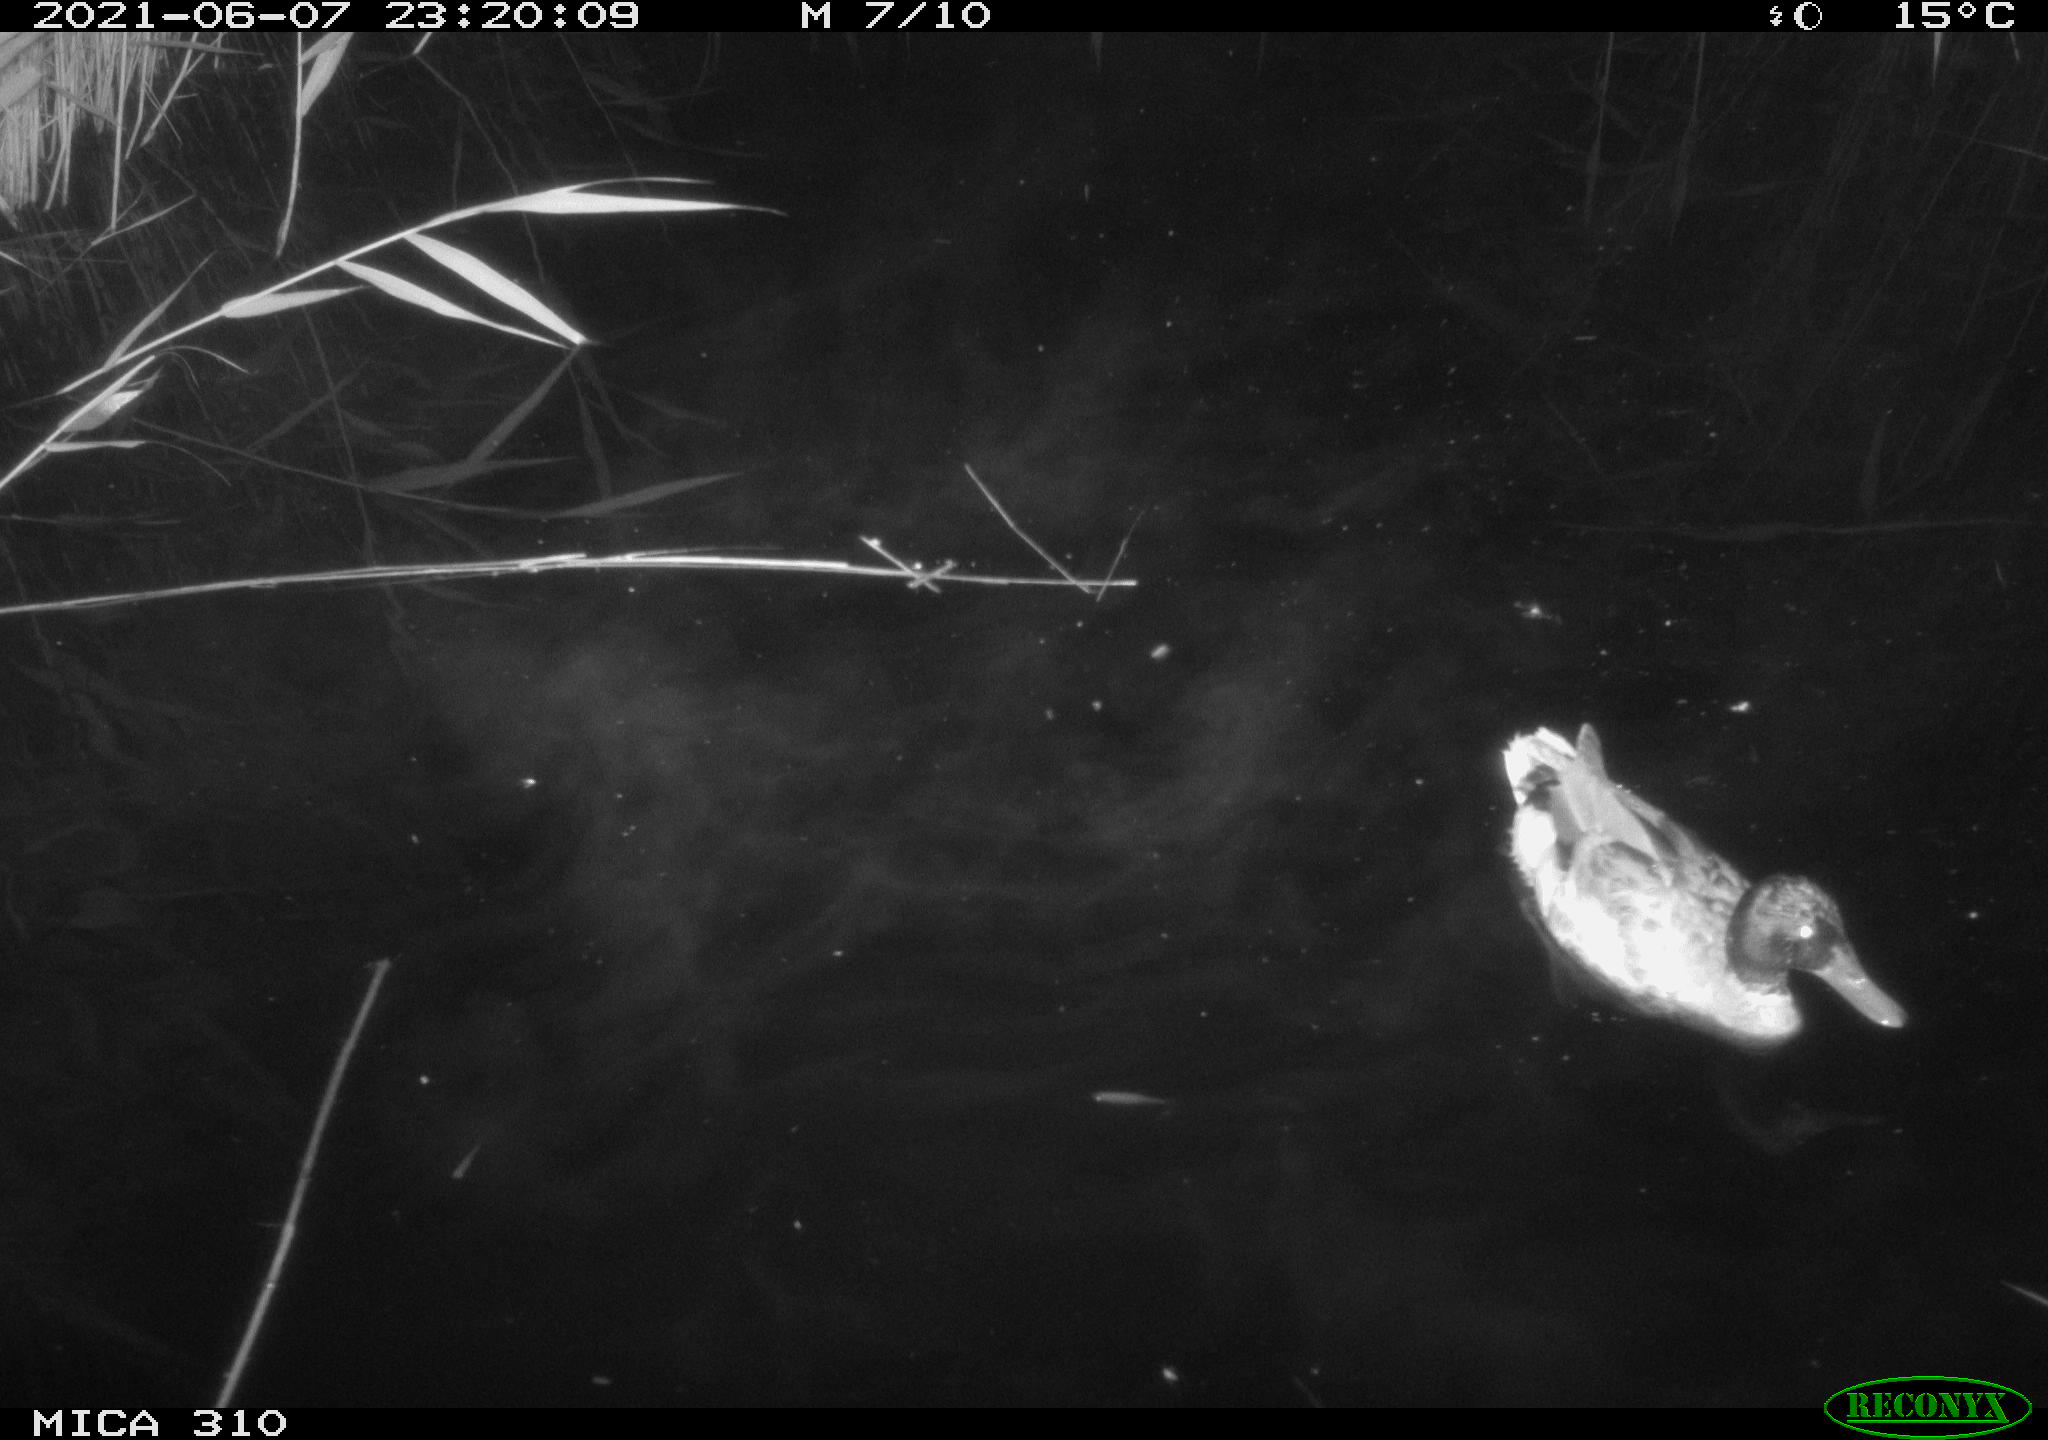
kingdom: Animalia
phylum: Chordata
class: Aves
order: Anseriformes
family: Anatidae
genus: Anas
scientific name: Anas
